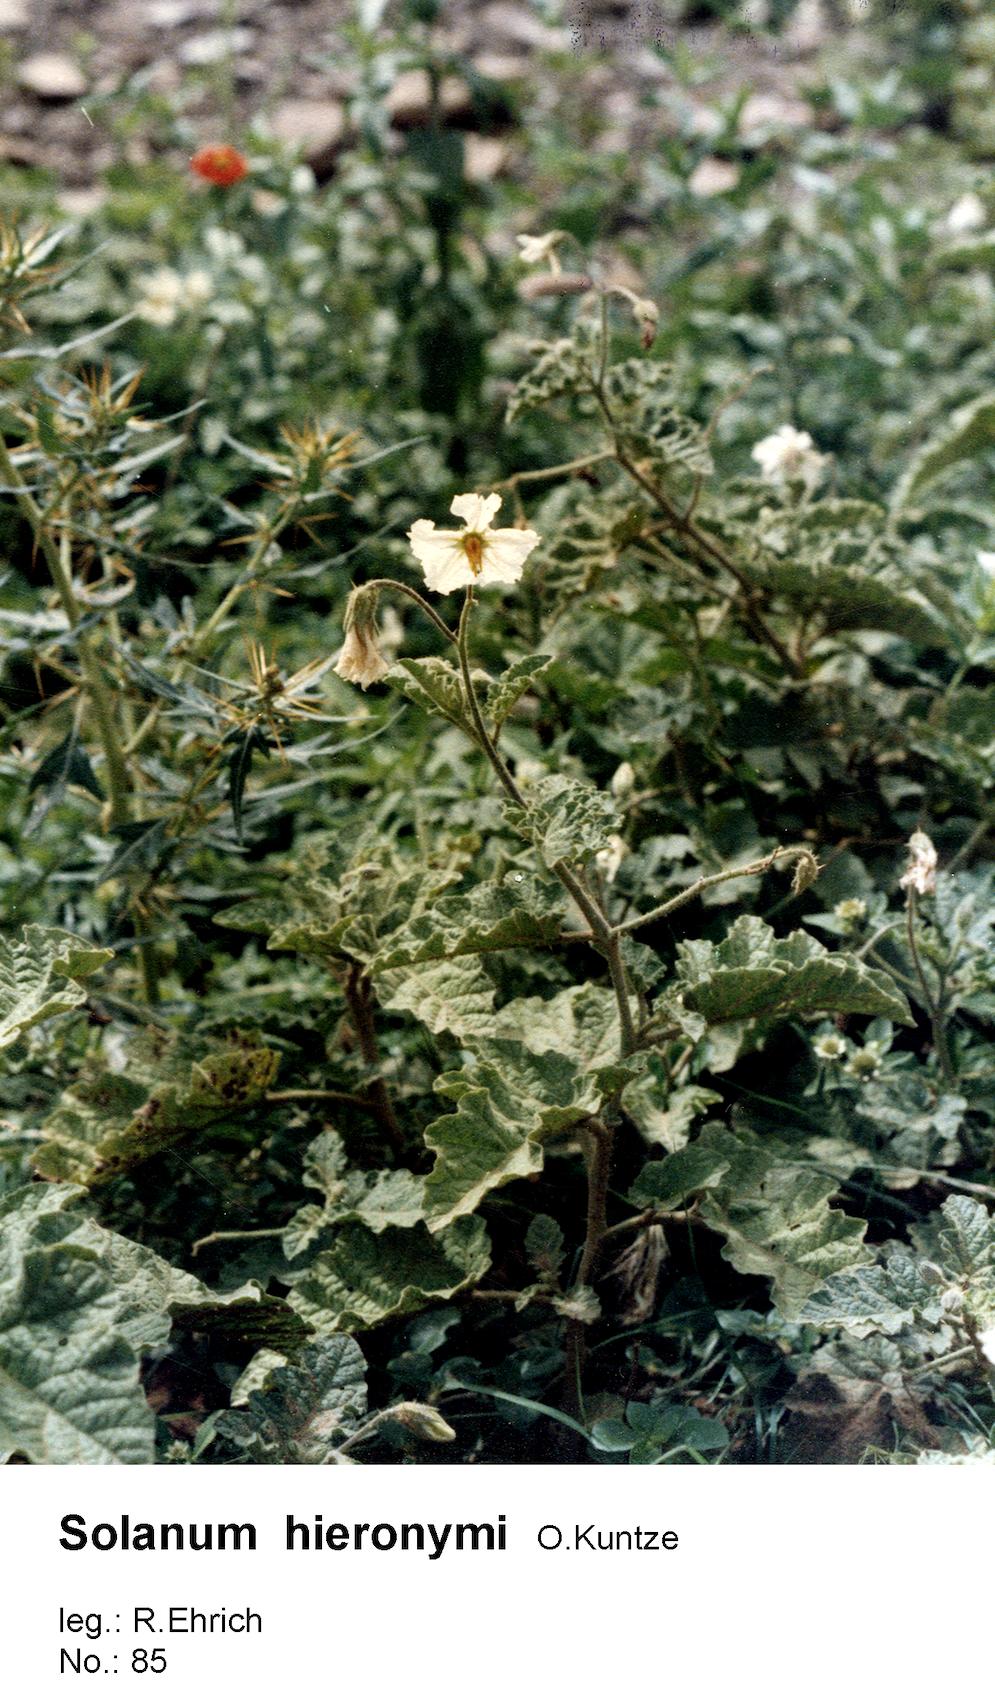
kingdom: Plantae
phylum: Tracheophyta
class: Magnoliopsida
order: Solanales
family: Solanaceae
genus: Solanum
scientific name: Solanum hieronymi
